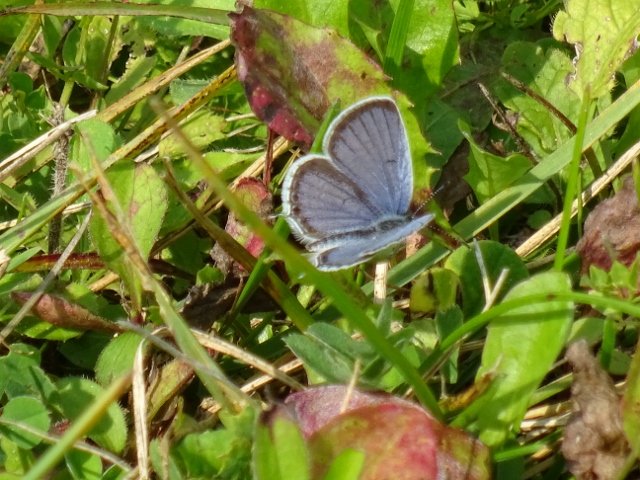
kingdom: Animalia
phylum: Arthropoda
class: Insecta
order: Lepidoptera
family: Lycaenidae
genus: Elkalyce
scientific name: Elkalyce comyntas
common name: Eastern Tailed-Blue
